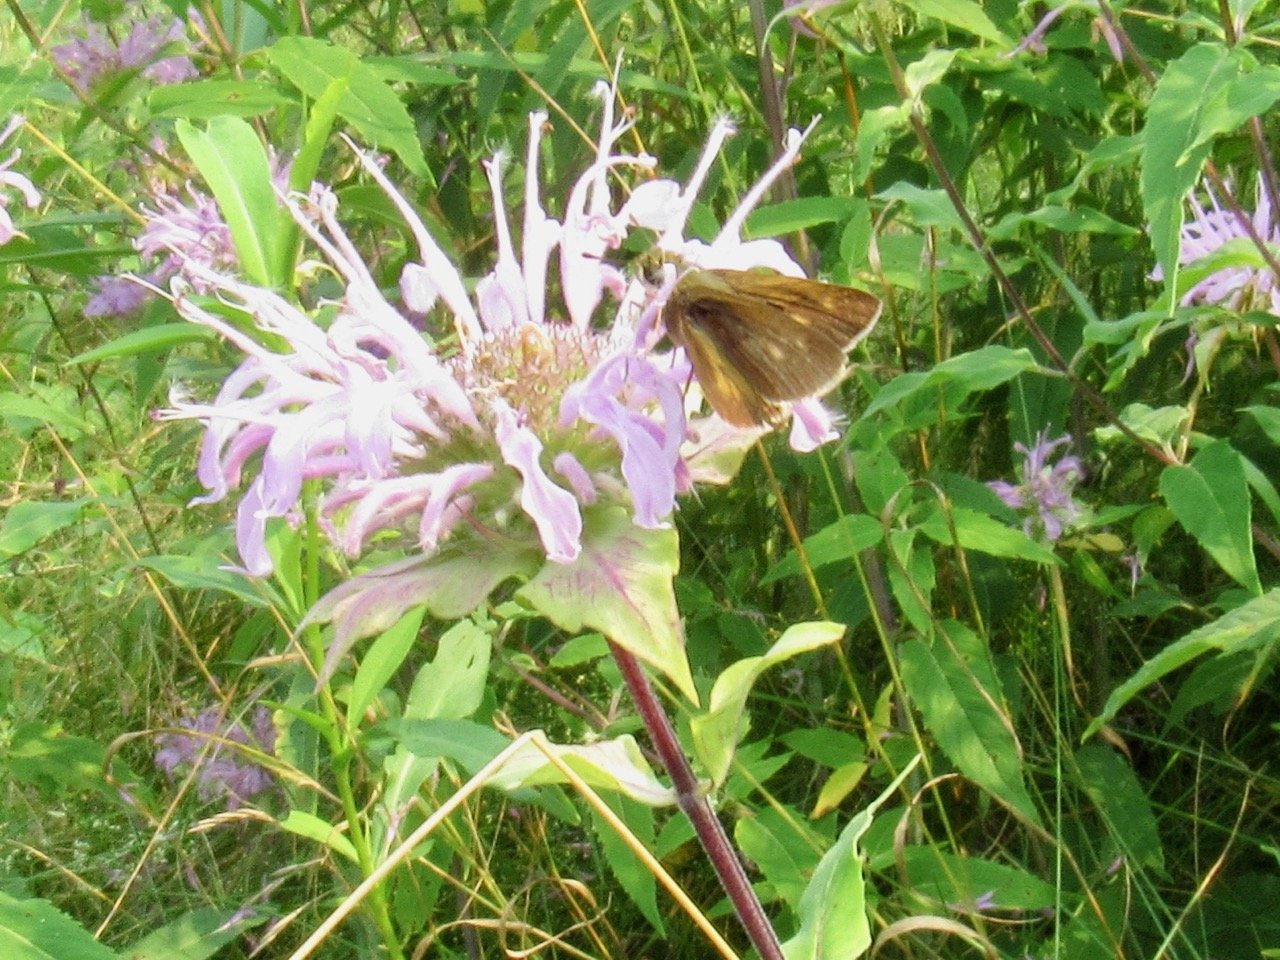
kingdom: Animalia
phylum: Arthropoda
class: Insecta
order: Lepidoptera
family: Hesperiidae
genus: Polites
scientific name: Polites egeremet
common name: Northern Broken-Dash
